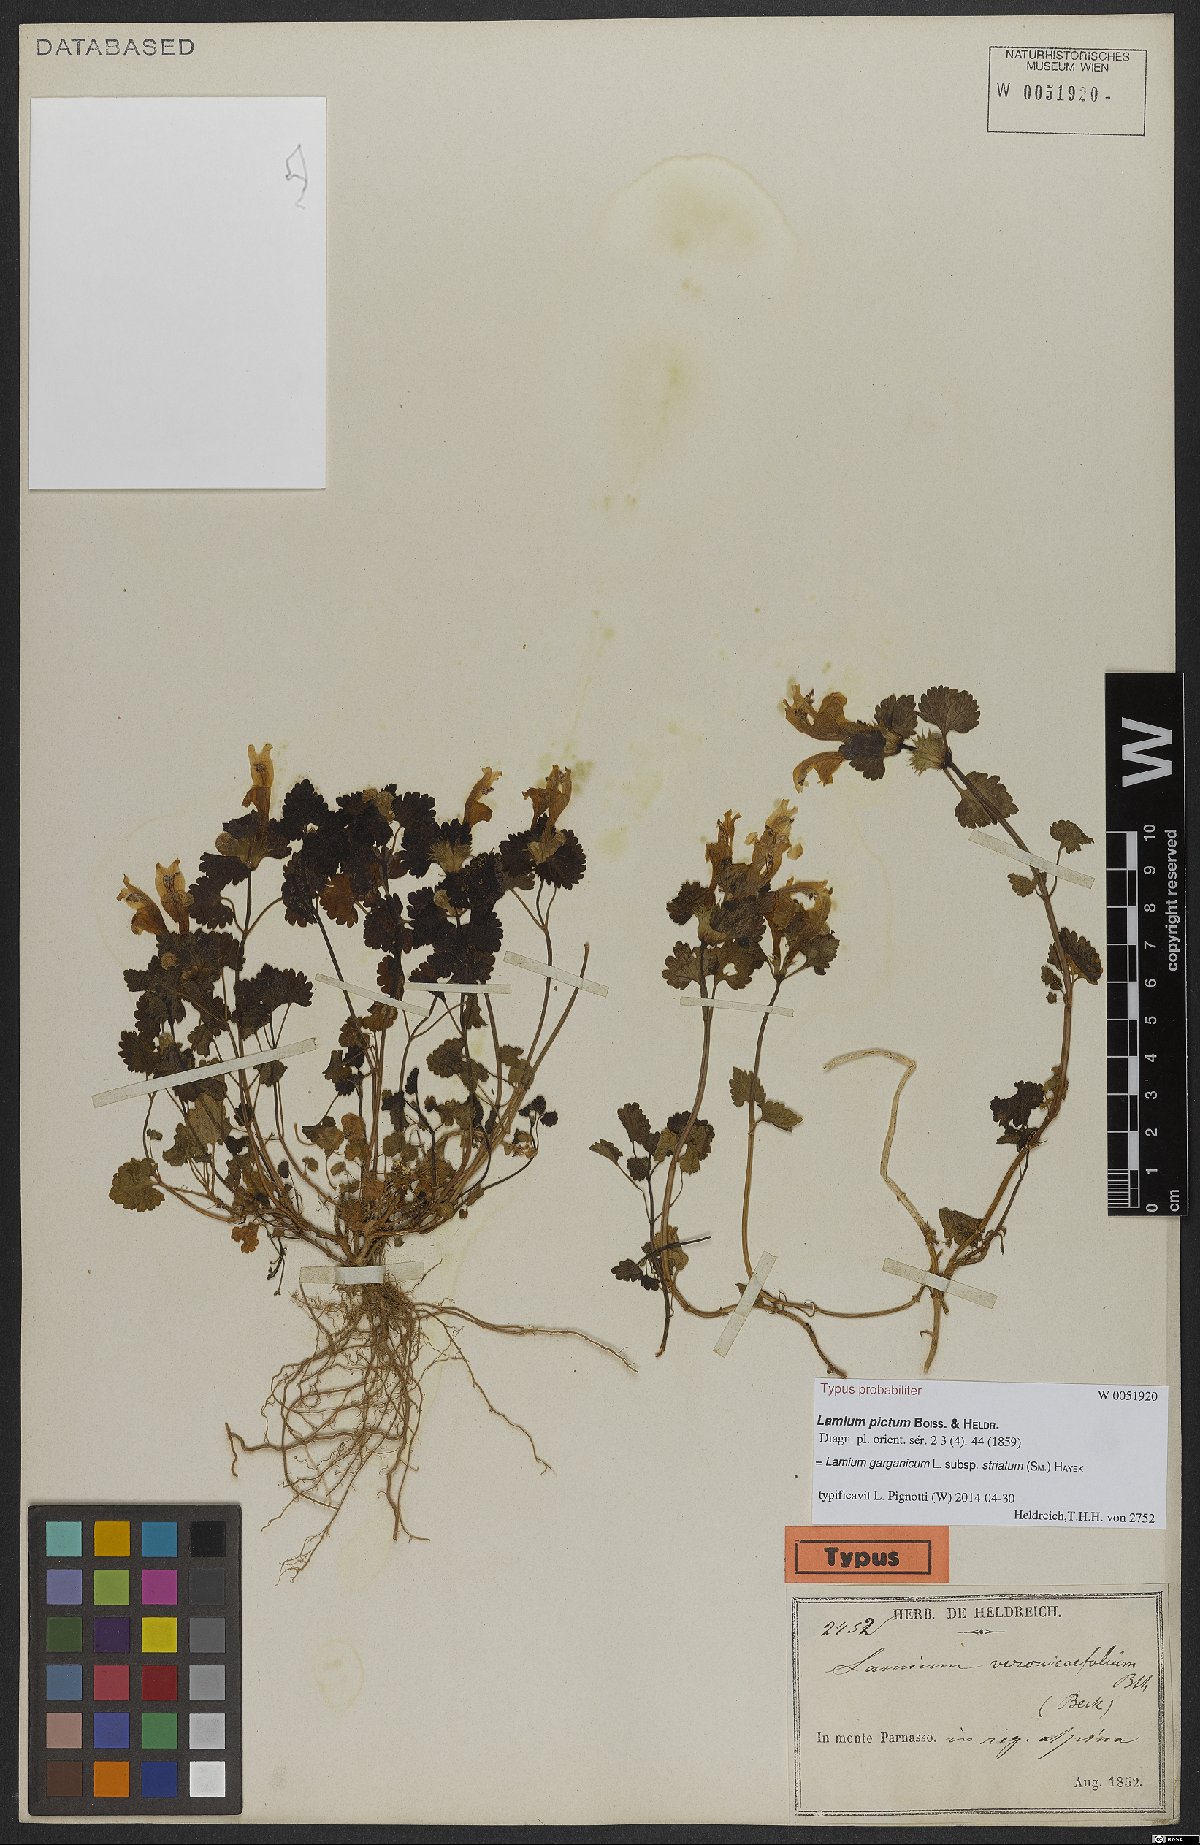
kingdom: Plantae
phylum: Tracheophyta
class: Magnoliopsida
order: Lamiales
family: Lamiaceae
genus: Lamium
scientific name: Lamium garganicum
